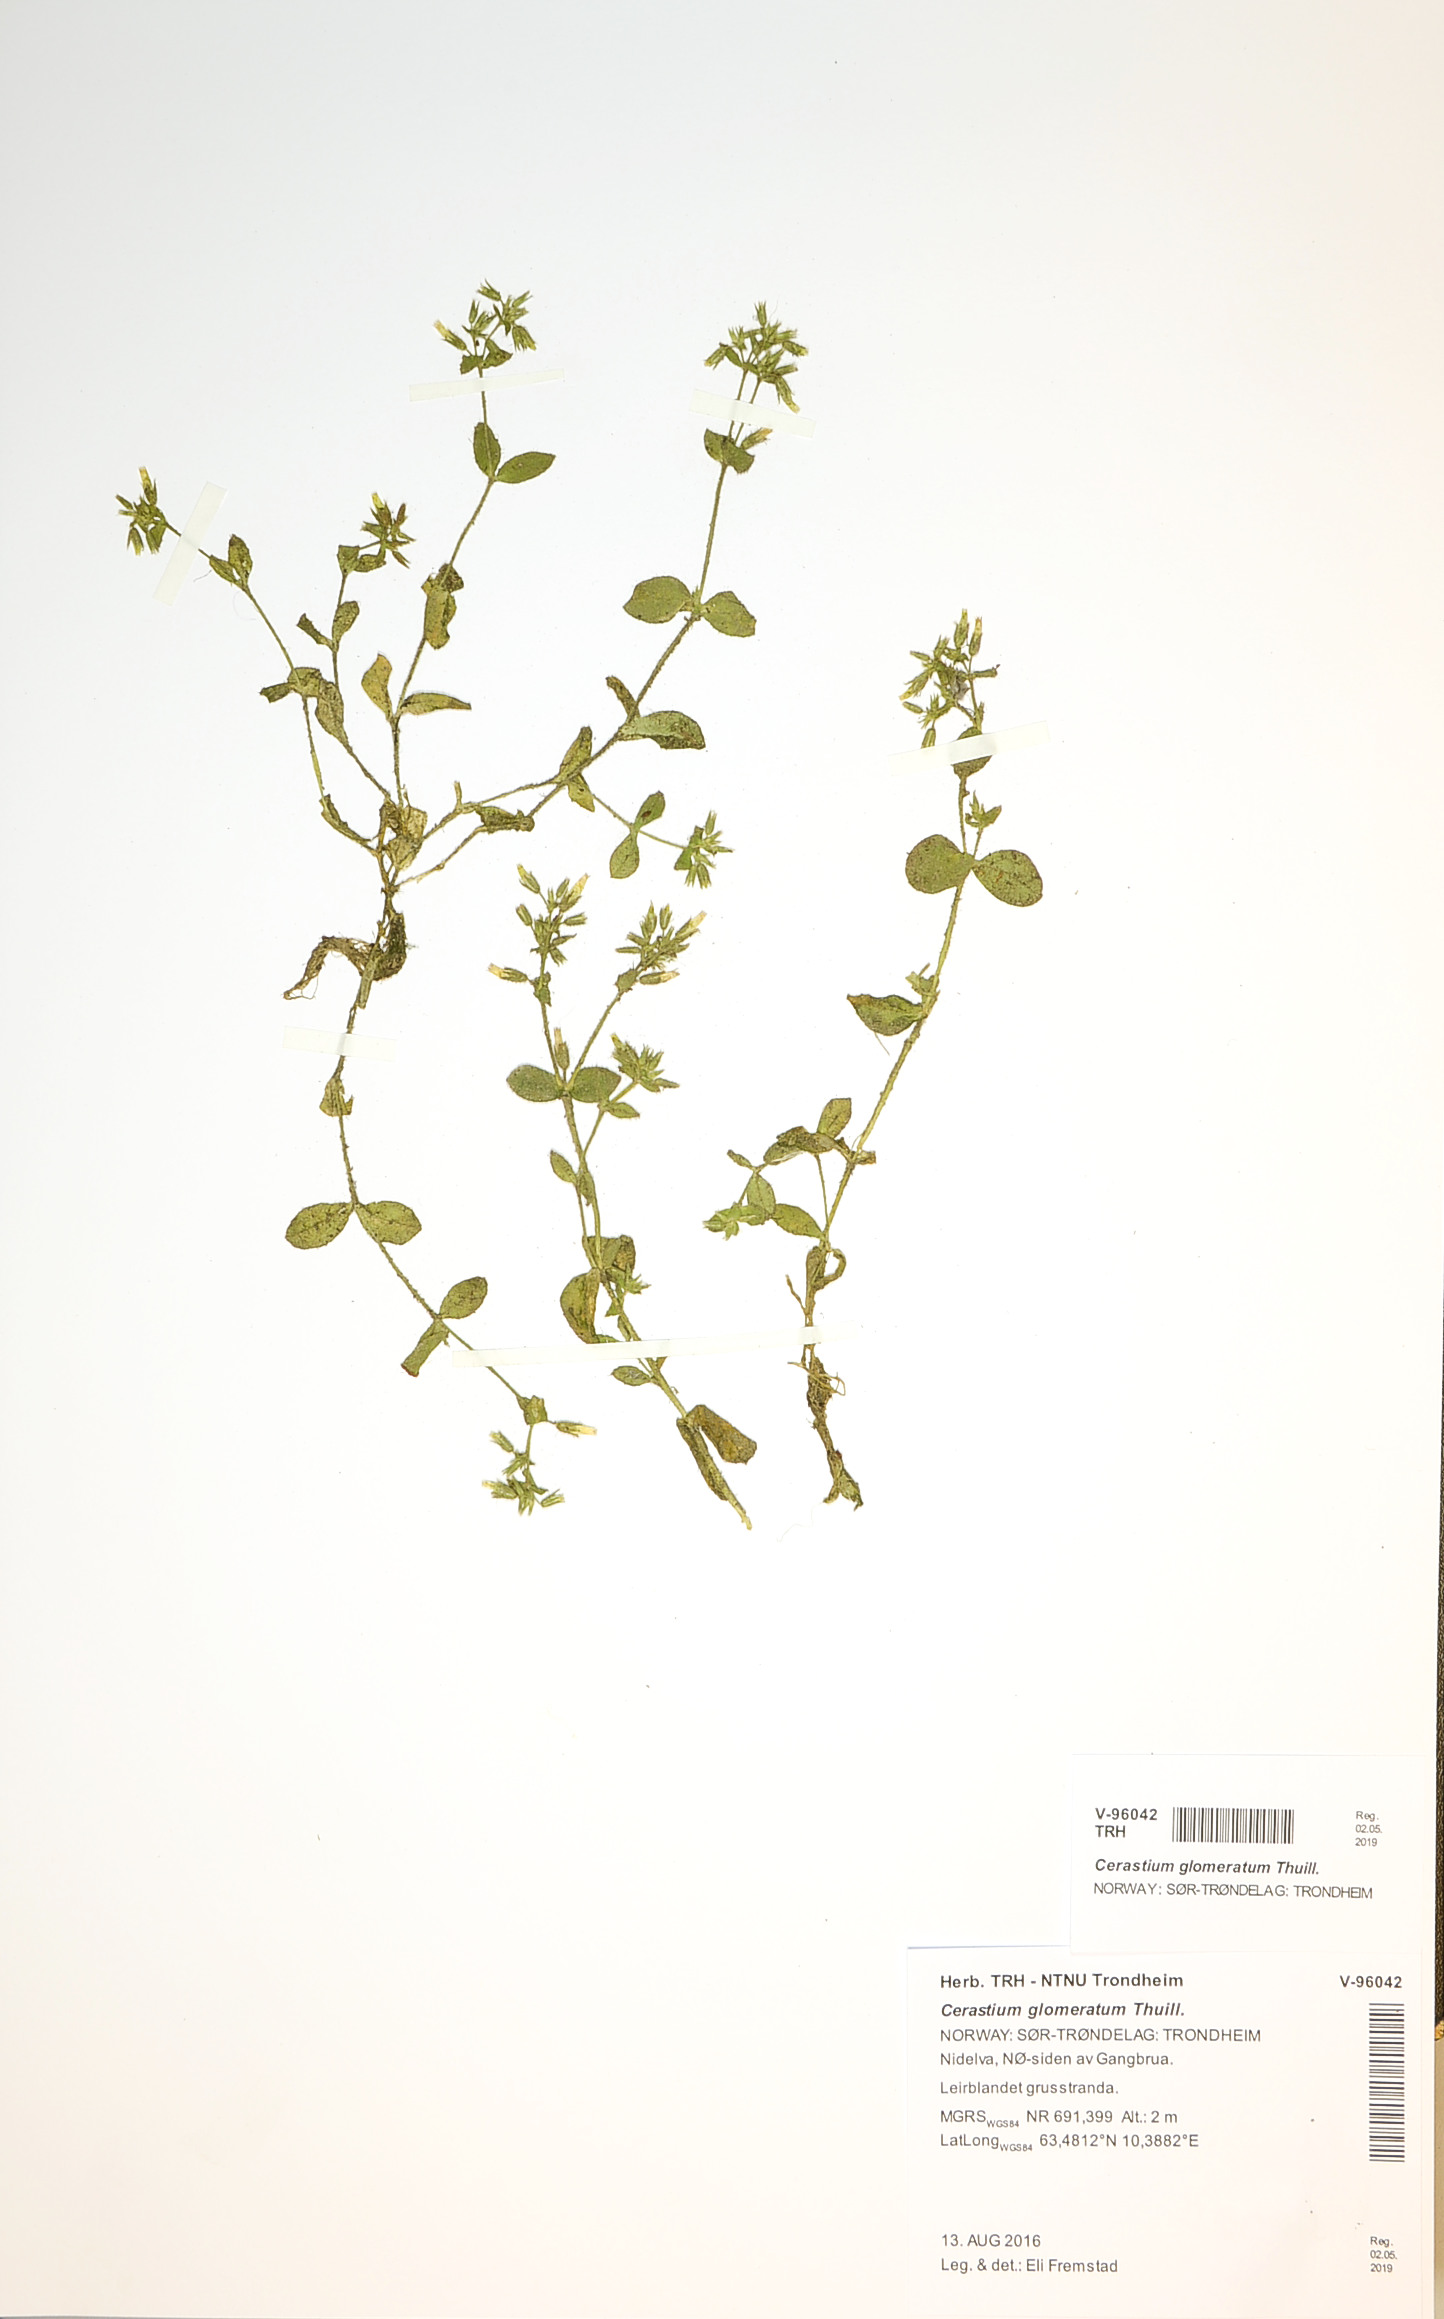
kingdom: Plantae
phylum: Tracheophyta
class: Magnoliopsida
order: Caryophyllales
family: Caryophyllaceae
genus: Cerastium
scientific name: Cerastium glomeratum
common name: Sticky chickweed
